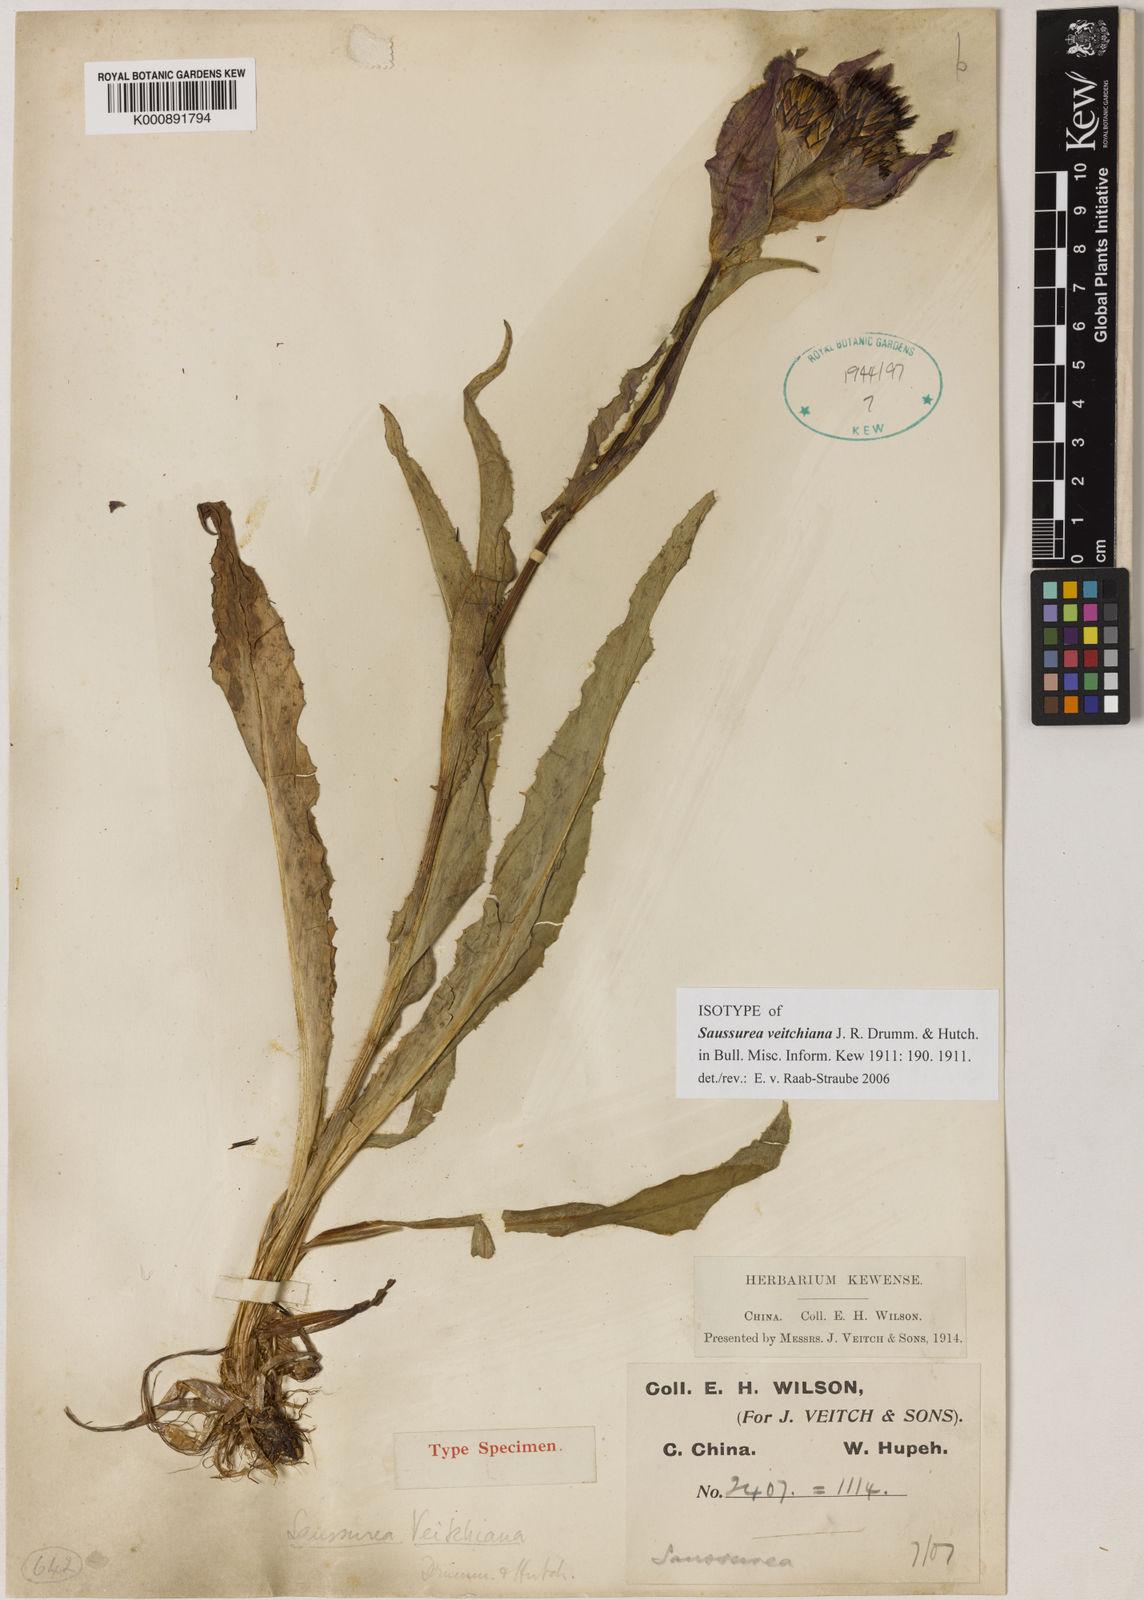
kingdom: Plantae
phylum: Tracheophyta
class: Magnoliopsida
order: Asterales
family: Asteraceae
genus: Saussurea
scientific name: Saussurea veitchiana
